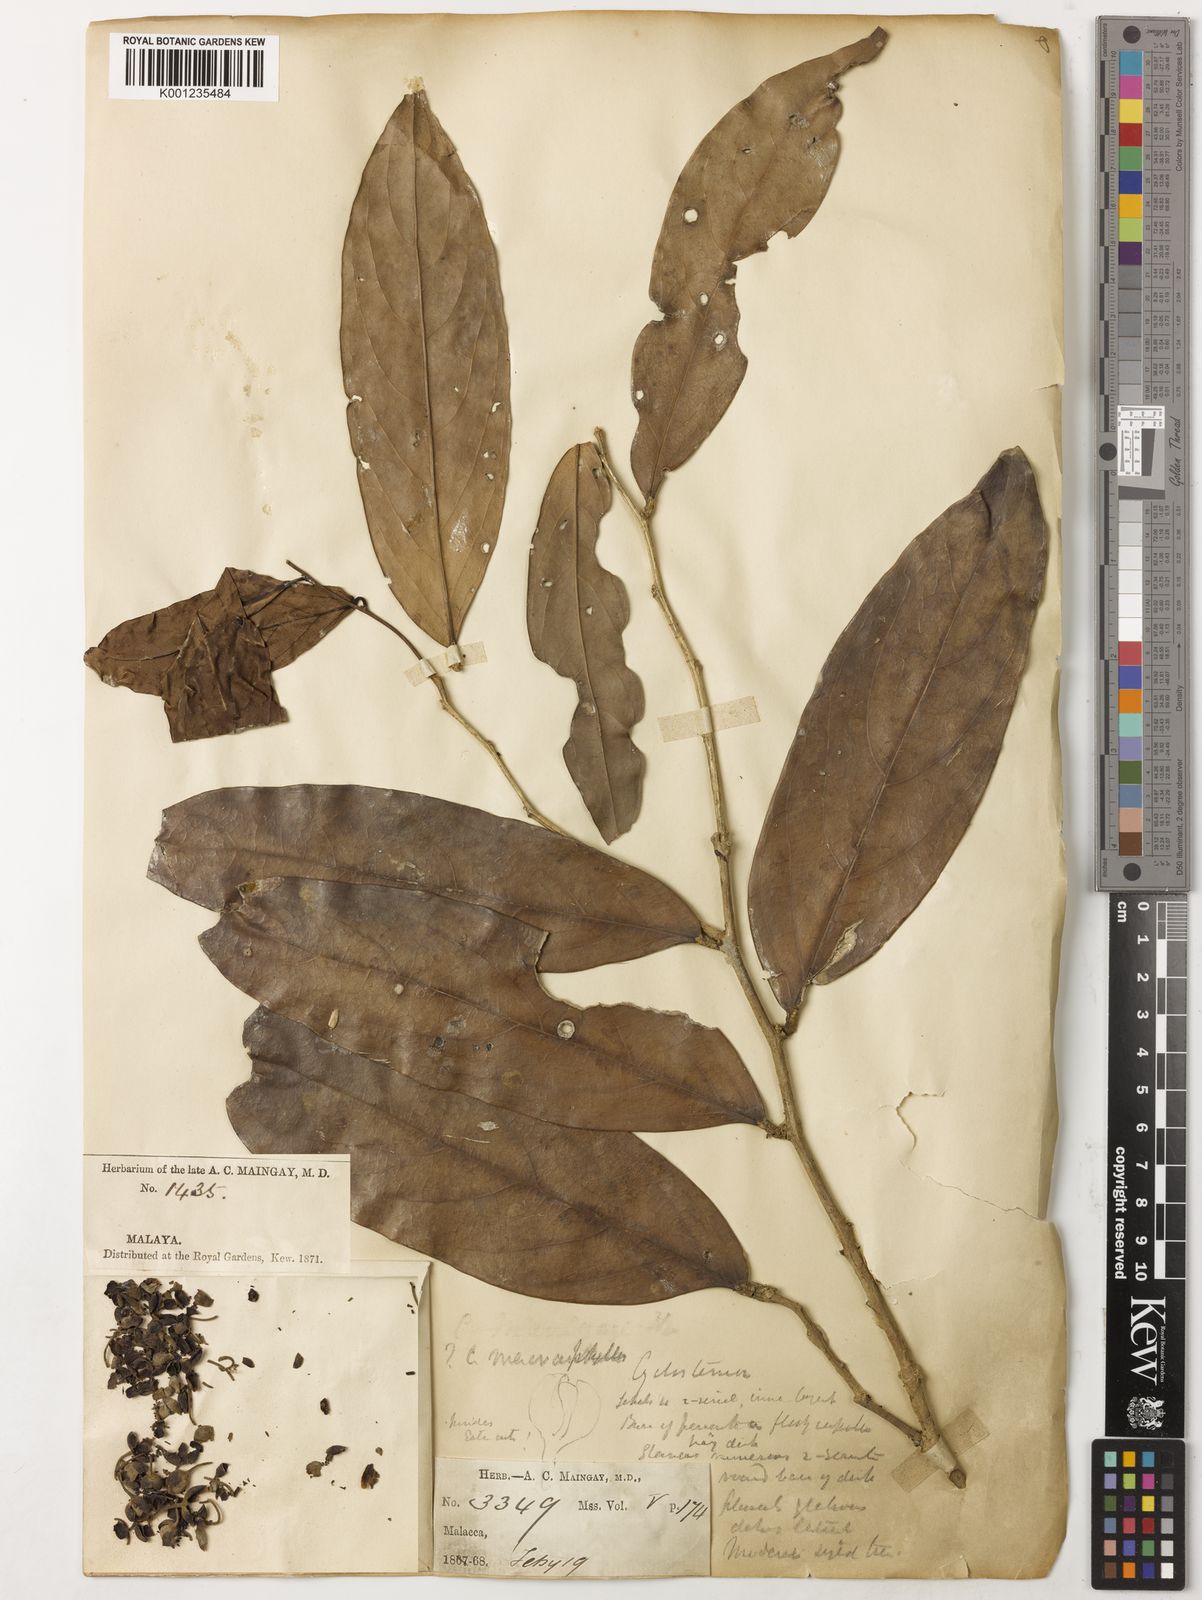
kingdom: Plantae
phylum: Tracheophyta
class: Magnoliopsida
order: Malpighiales
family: Putranjivaceae
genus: Drypetes
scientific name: Drypetes longifolia
